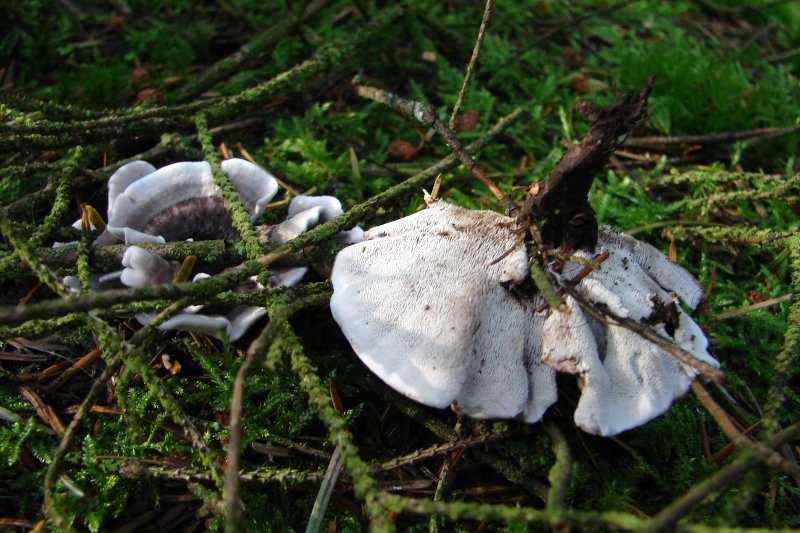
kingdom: Fungi
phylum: Basidiomycota
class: Agaricomycetes
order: Thelephorales
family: Thelephoraceae
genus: Phellodon
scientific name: Phellodon tomentosus
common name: vellugtende duftpigsvamp
